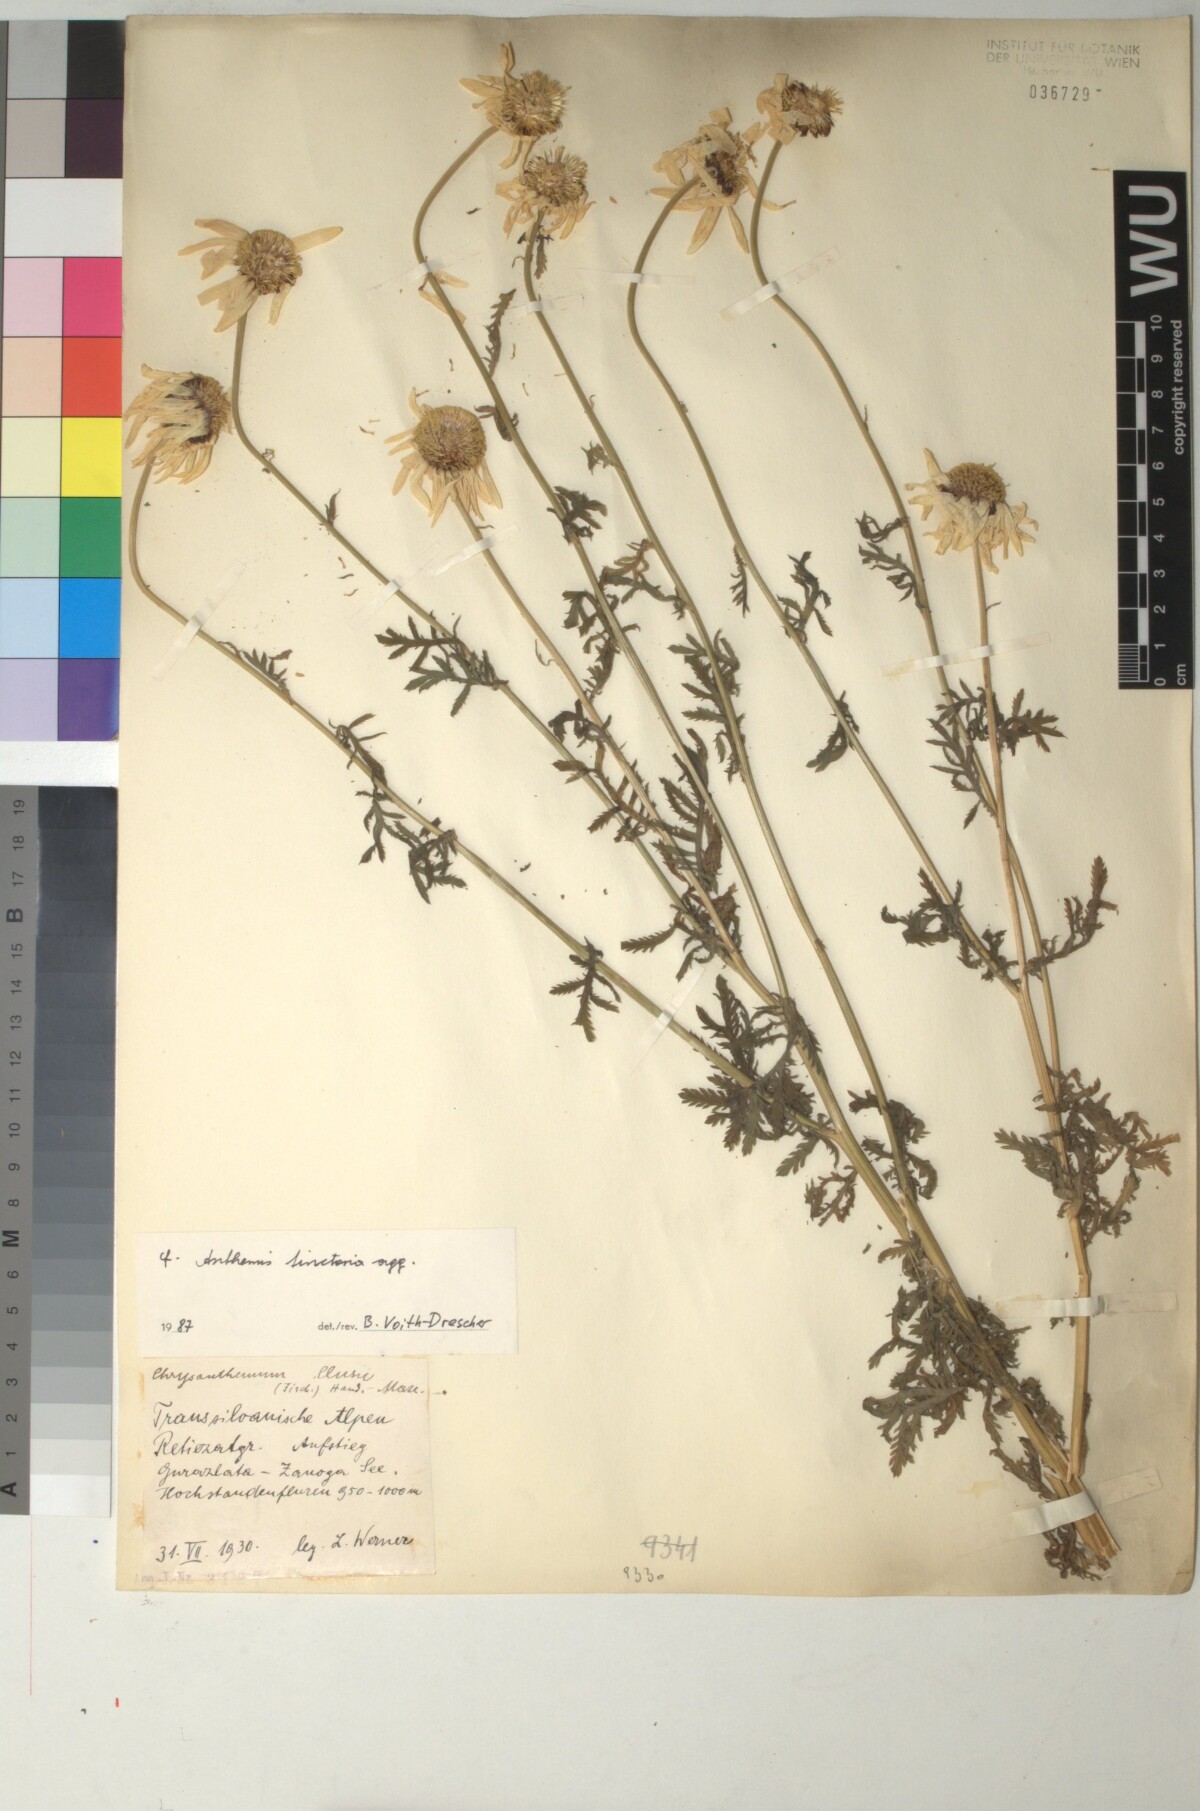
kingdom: Plantae
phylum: Tracheophyta
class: Magnoliopsida
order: Asterales
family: Asteraceae
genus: Cota
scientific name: Cota tinctoria
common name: Golden chamomile
